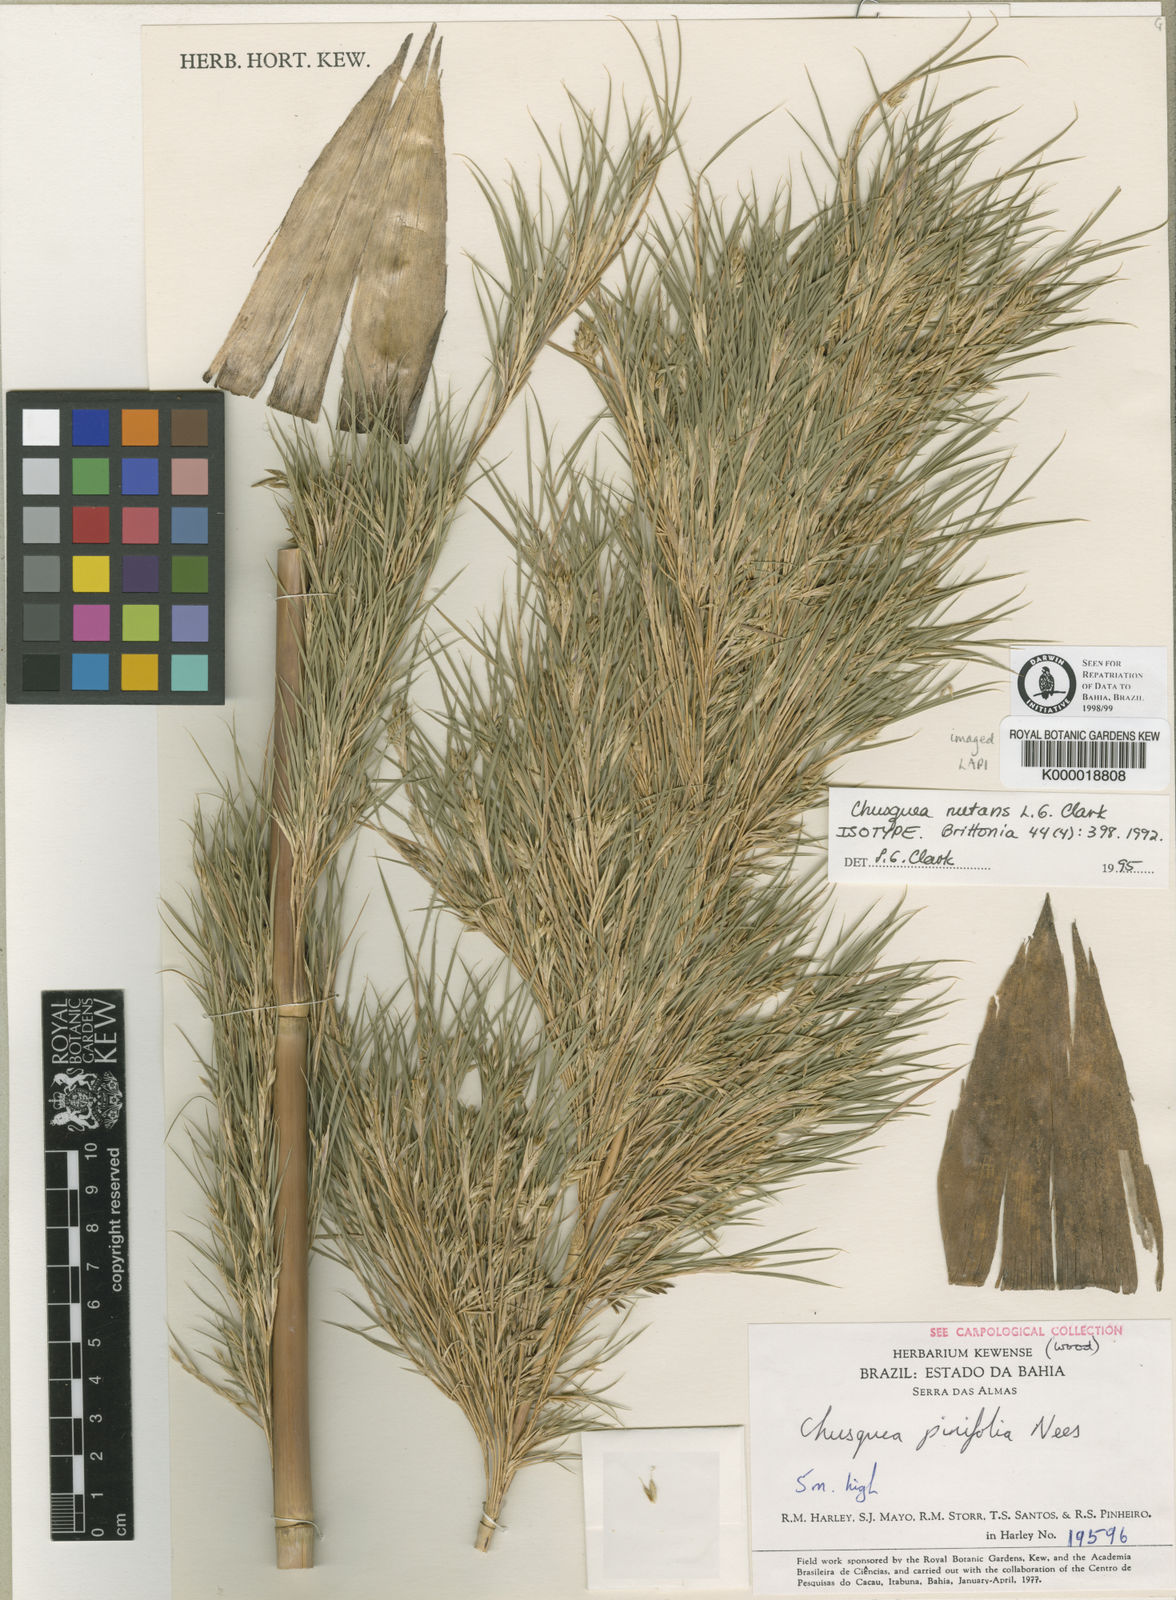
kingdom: Plantae
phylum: Tracheophyta
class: Liliopsida
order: Poales
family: Poaceae
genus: Chusquea
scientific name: Chusquea nutans
